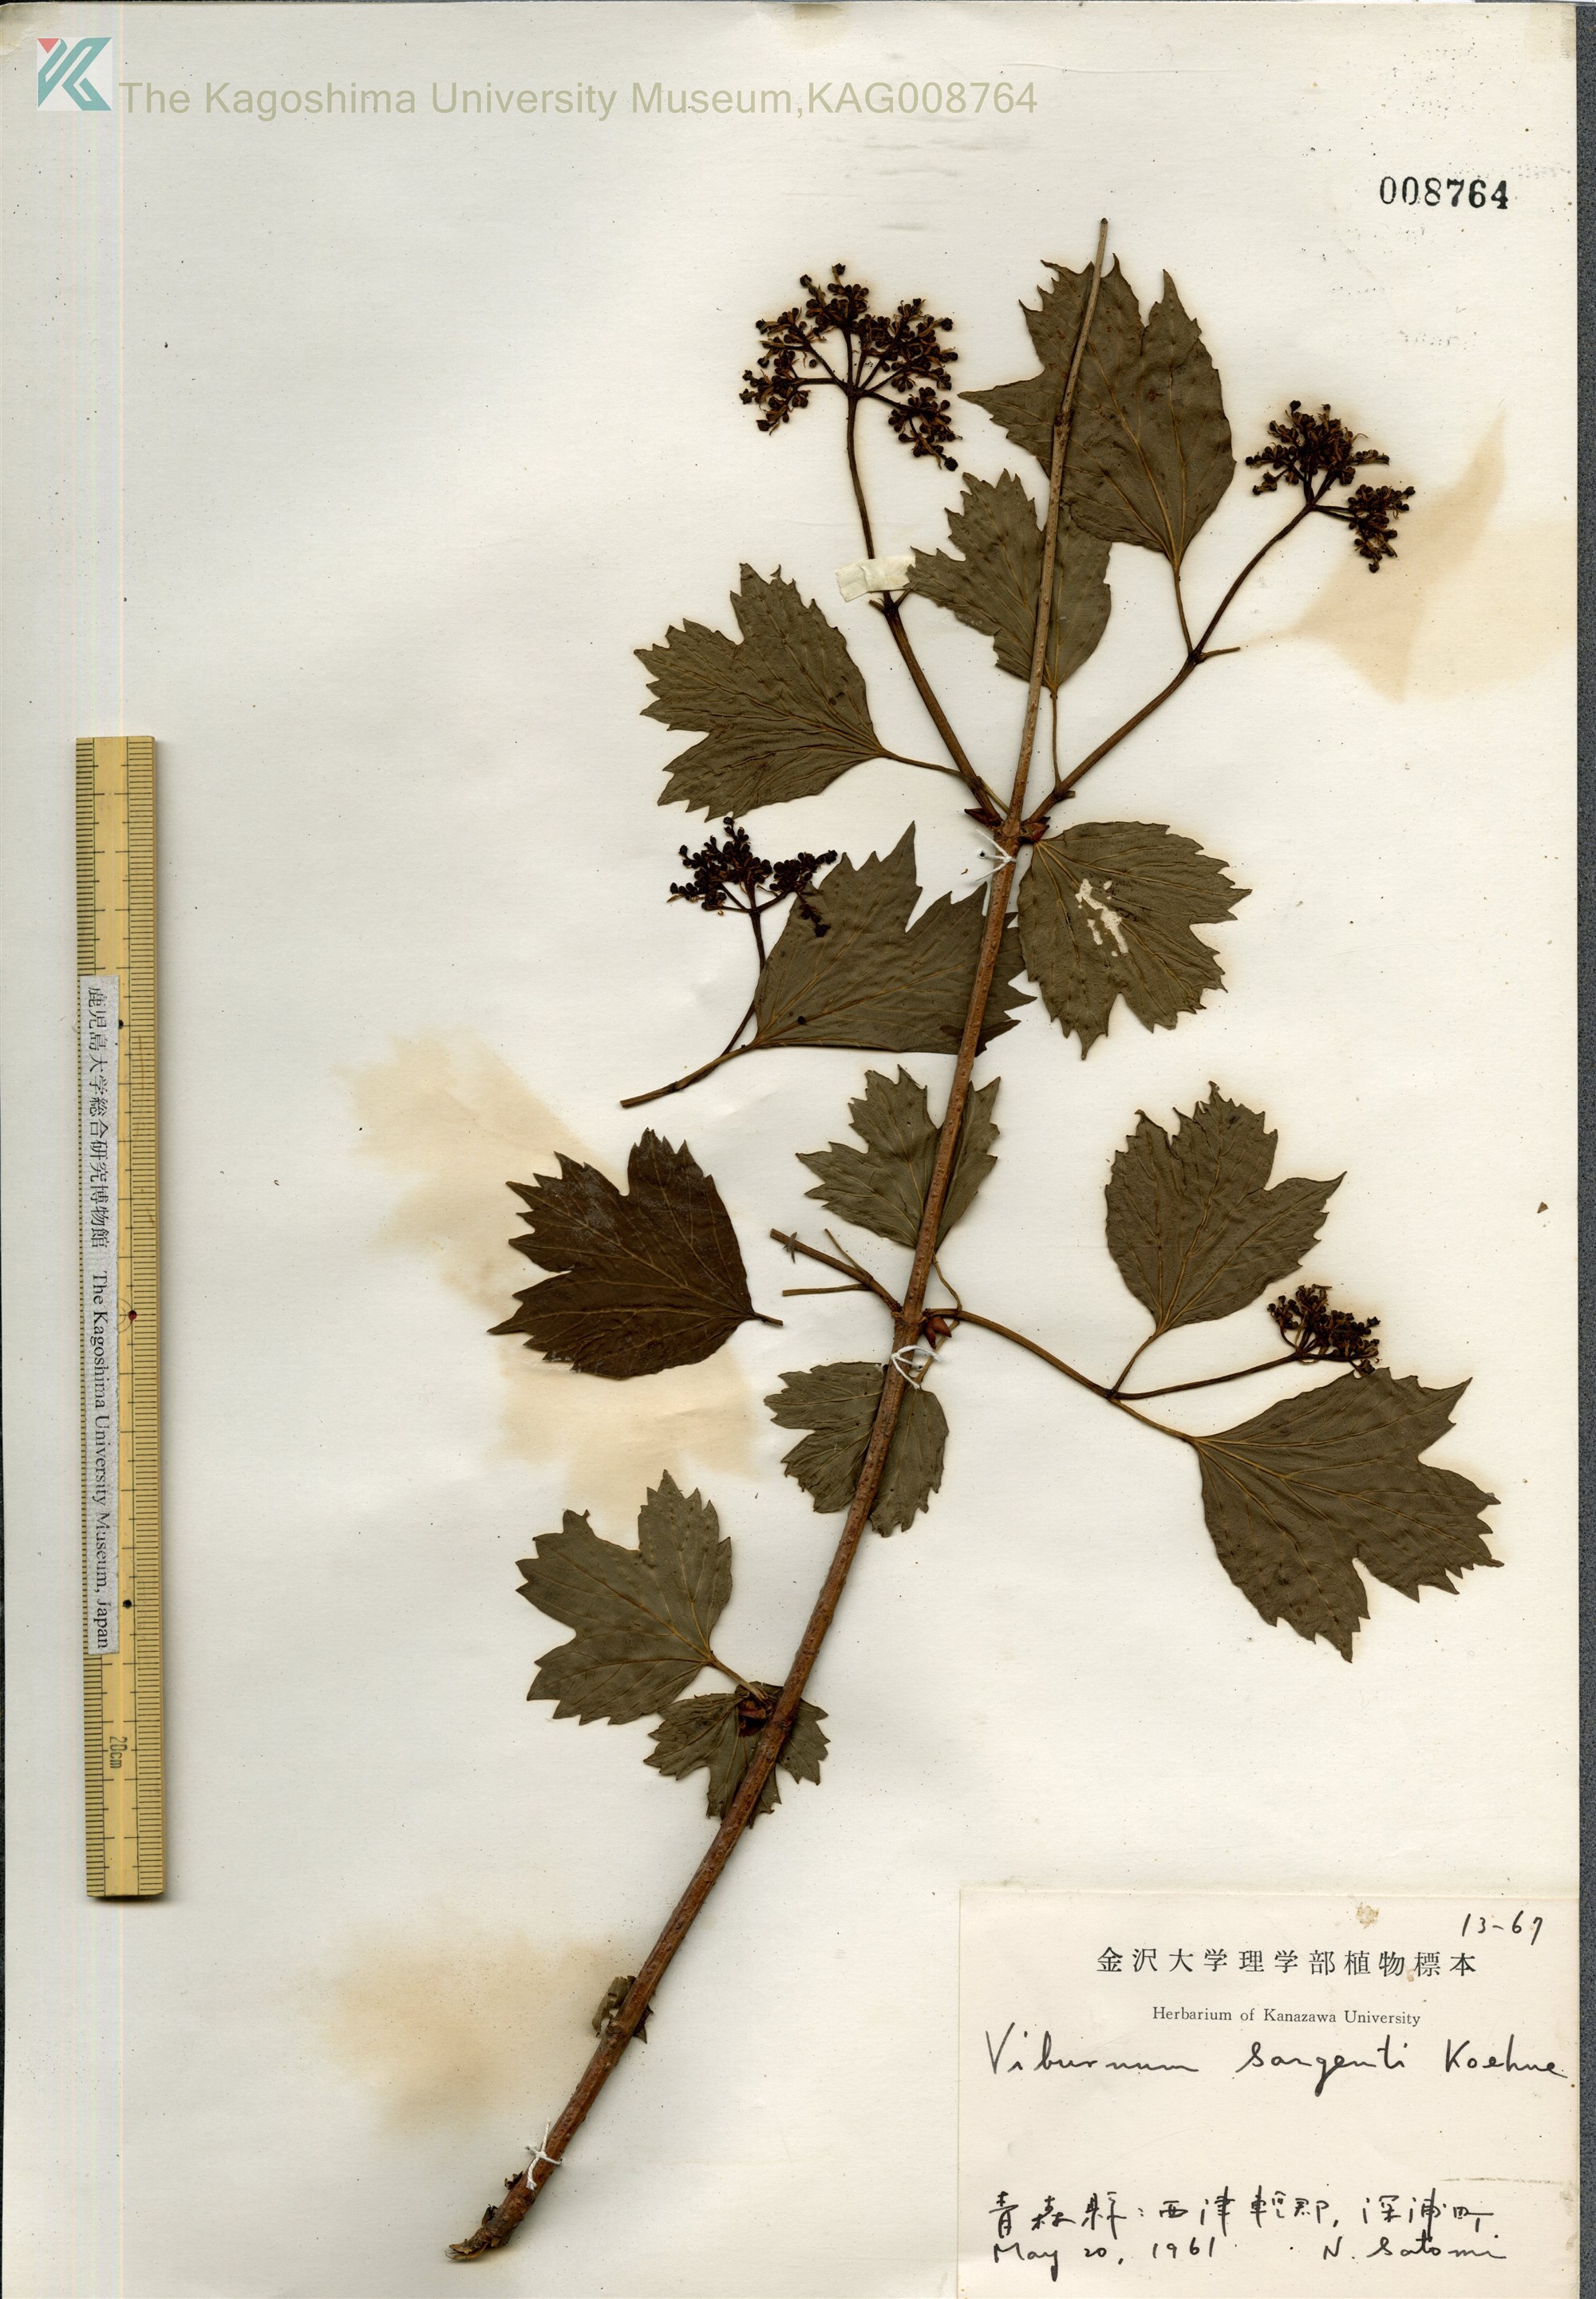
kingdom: Plantae
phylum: Tracheophyta
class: Magnoliopsida
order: Dipsacales
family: Viburnaceae
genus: Viburnum
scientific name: Viburnum opulus
